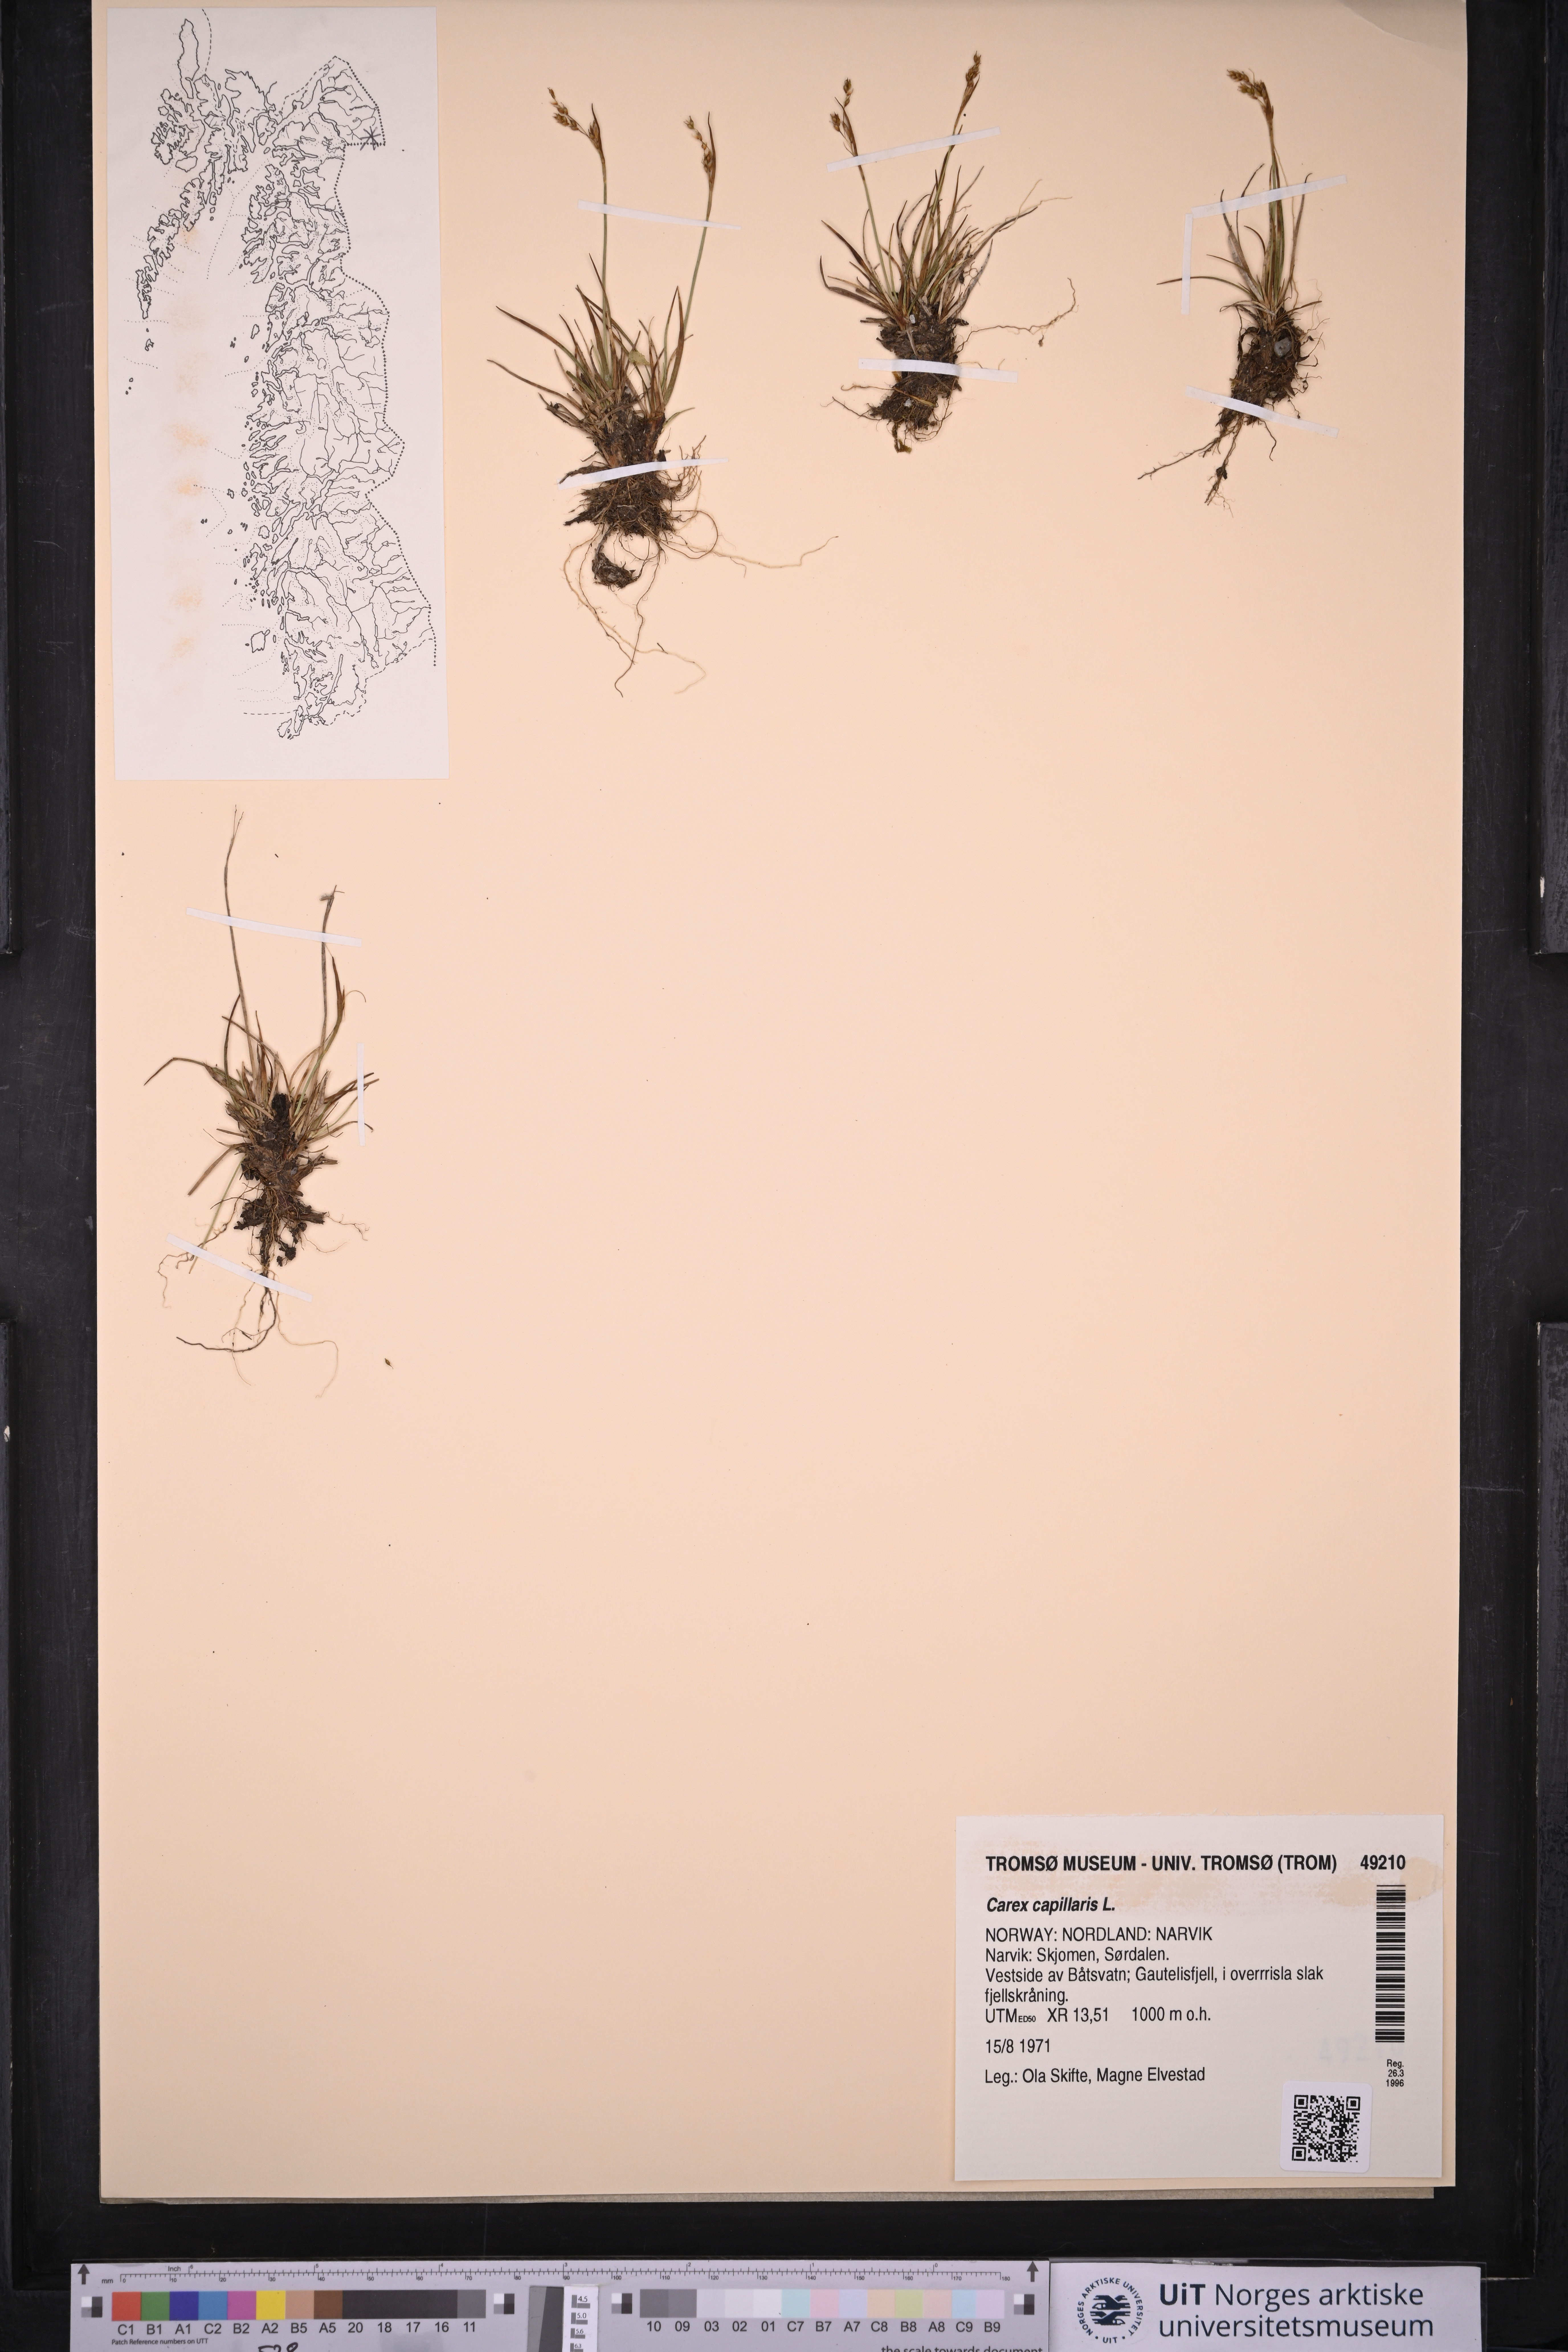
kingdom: Plantae
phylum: Tracheophyta
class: Liliopsida
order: Poales
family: Cyperaceae
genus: Carex
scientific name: Carex capillaris
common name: Hair sedge
